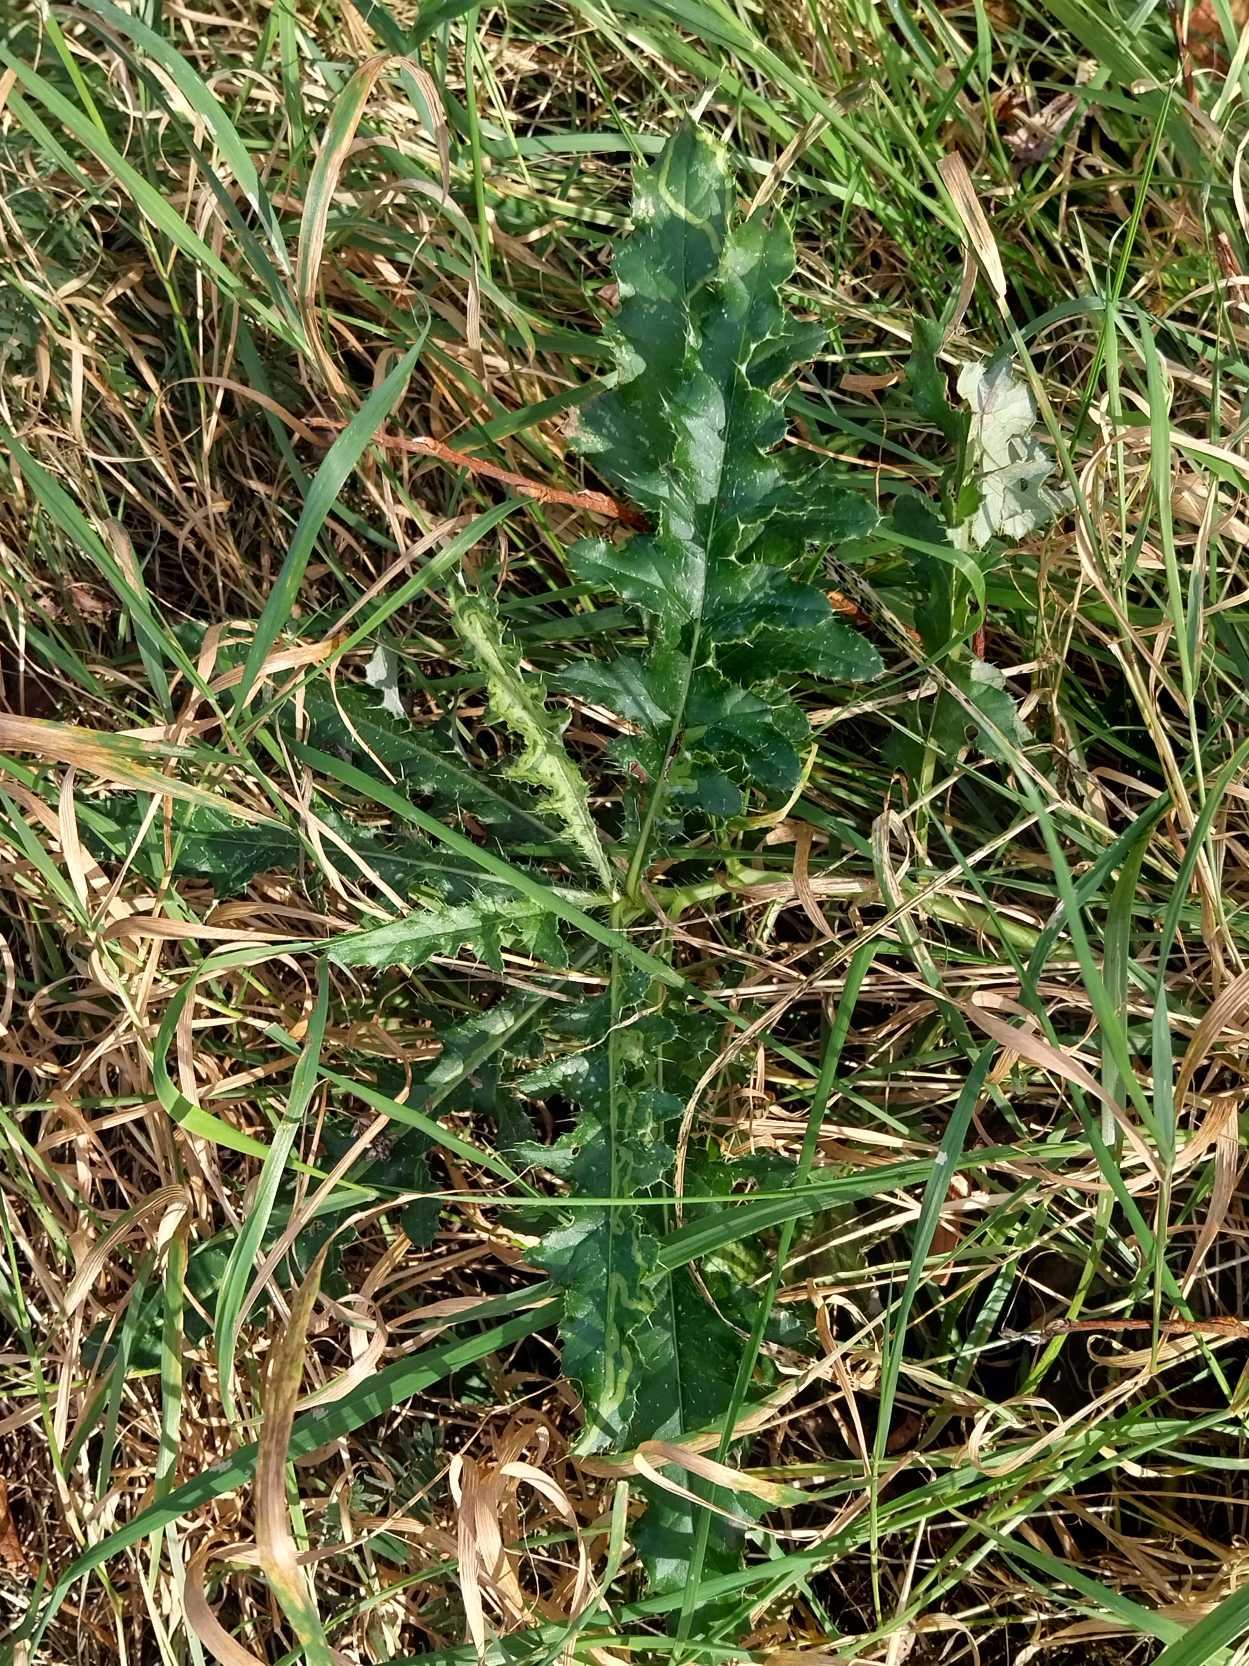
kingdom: Plantae
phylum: Tracheophyta
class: Magnoliopsida
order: Asterales
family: Asteraceae
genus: Cirsium
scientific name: Cirsium arvense
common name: Ager-tidsel
